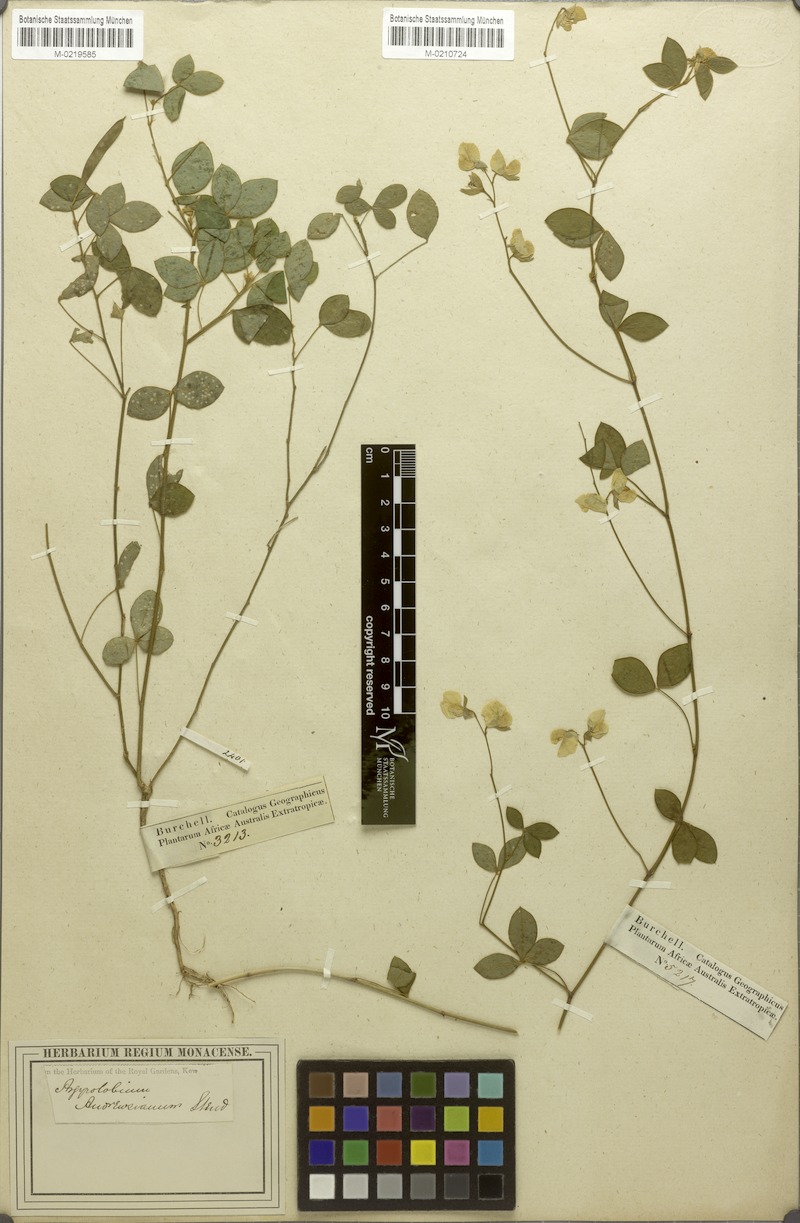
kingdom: Plantae
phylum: Tracheophyta
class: Magnoliopsida
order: Fabales
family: Fabaceae
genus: Argyrolobium
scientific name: Argyrolobium tomentosum
